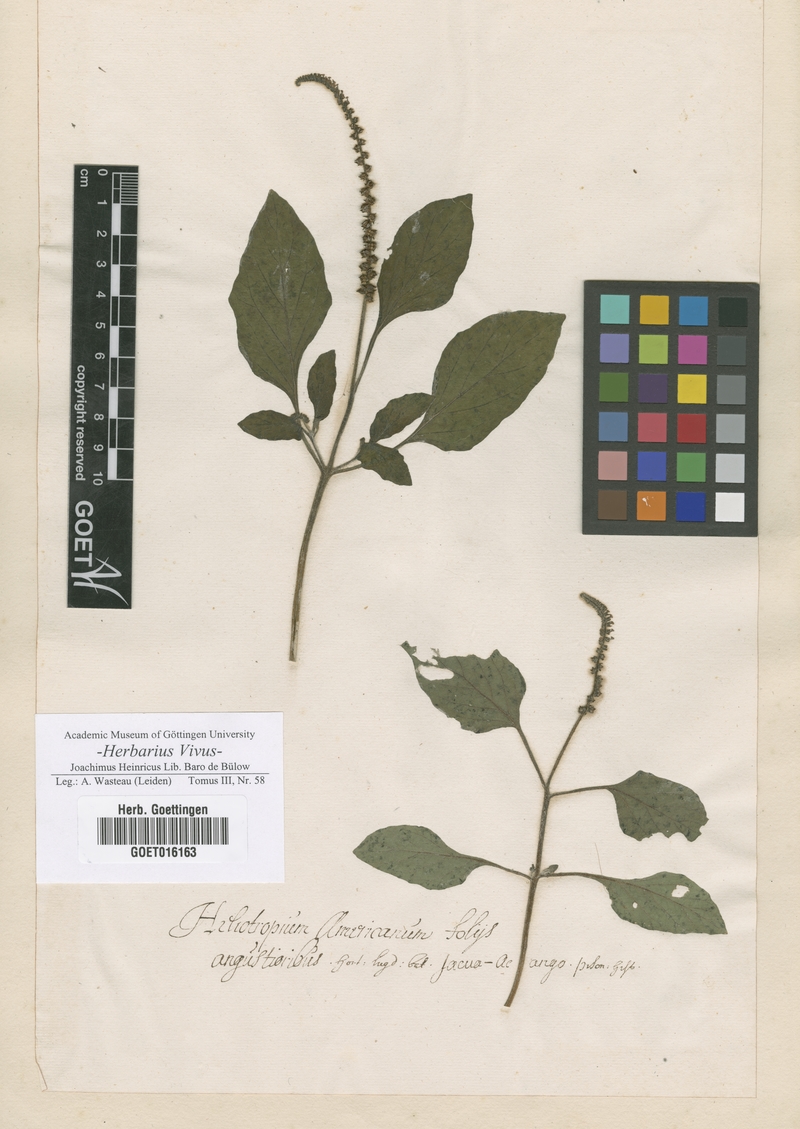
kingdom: Plantae
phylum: Tracheophyta
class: Magnoliopsida
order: Boraginales
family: Heliotropiaceae
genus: Heliotropium
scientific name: Heliotropium
